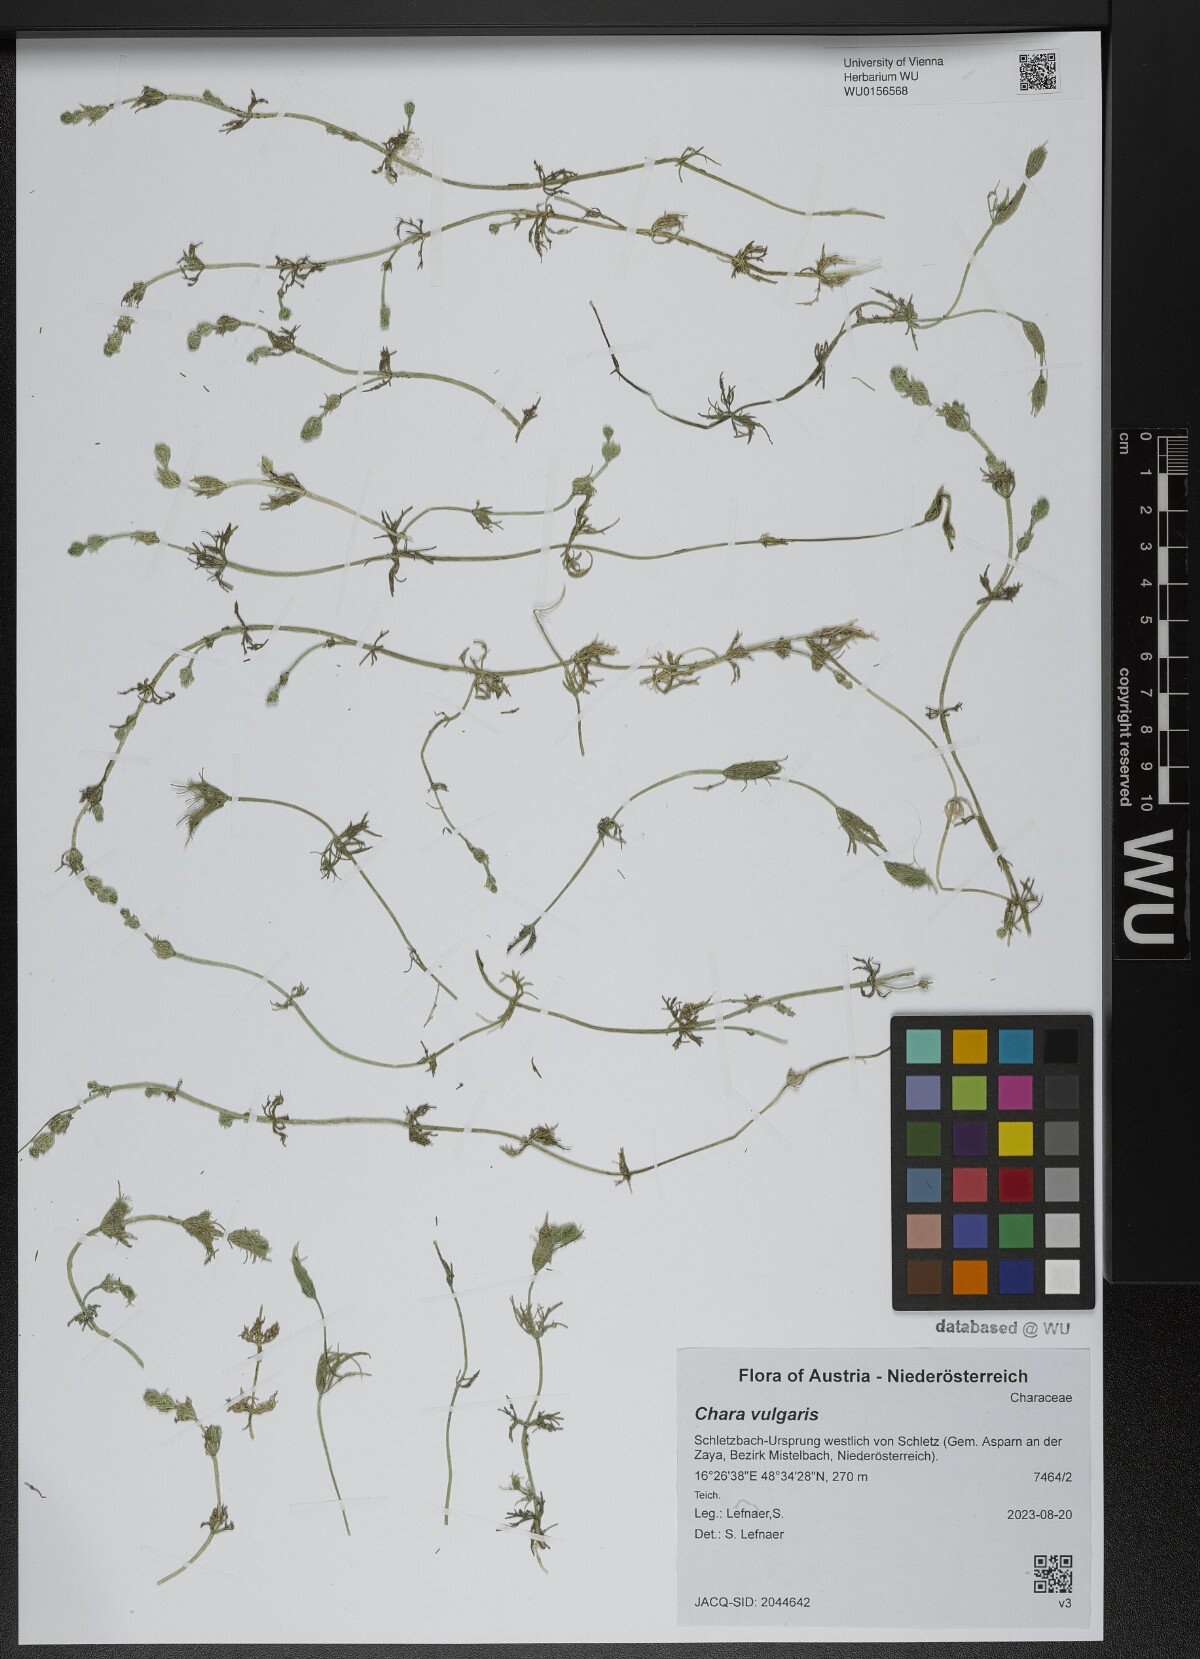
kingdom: Plantae
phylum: Charophyta
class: Charophyceae
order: Charales
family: Characeae
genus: Chara
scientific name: Chara vulgaris
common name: Common stonewort
